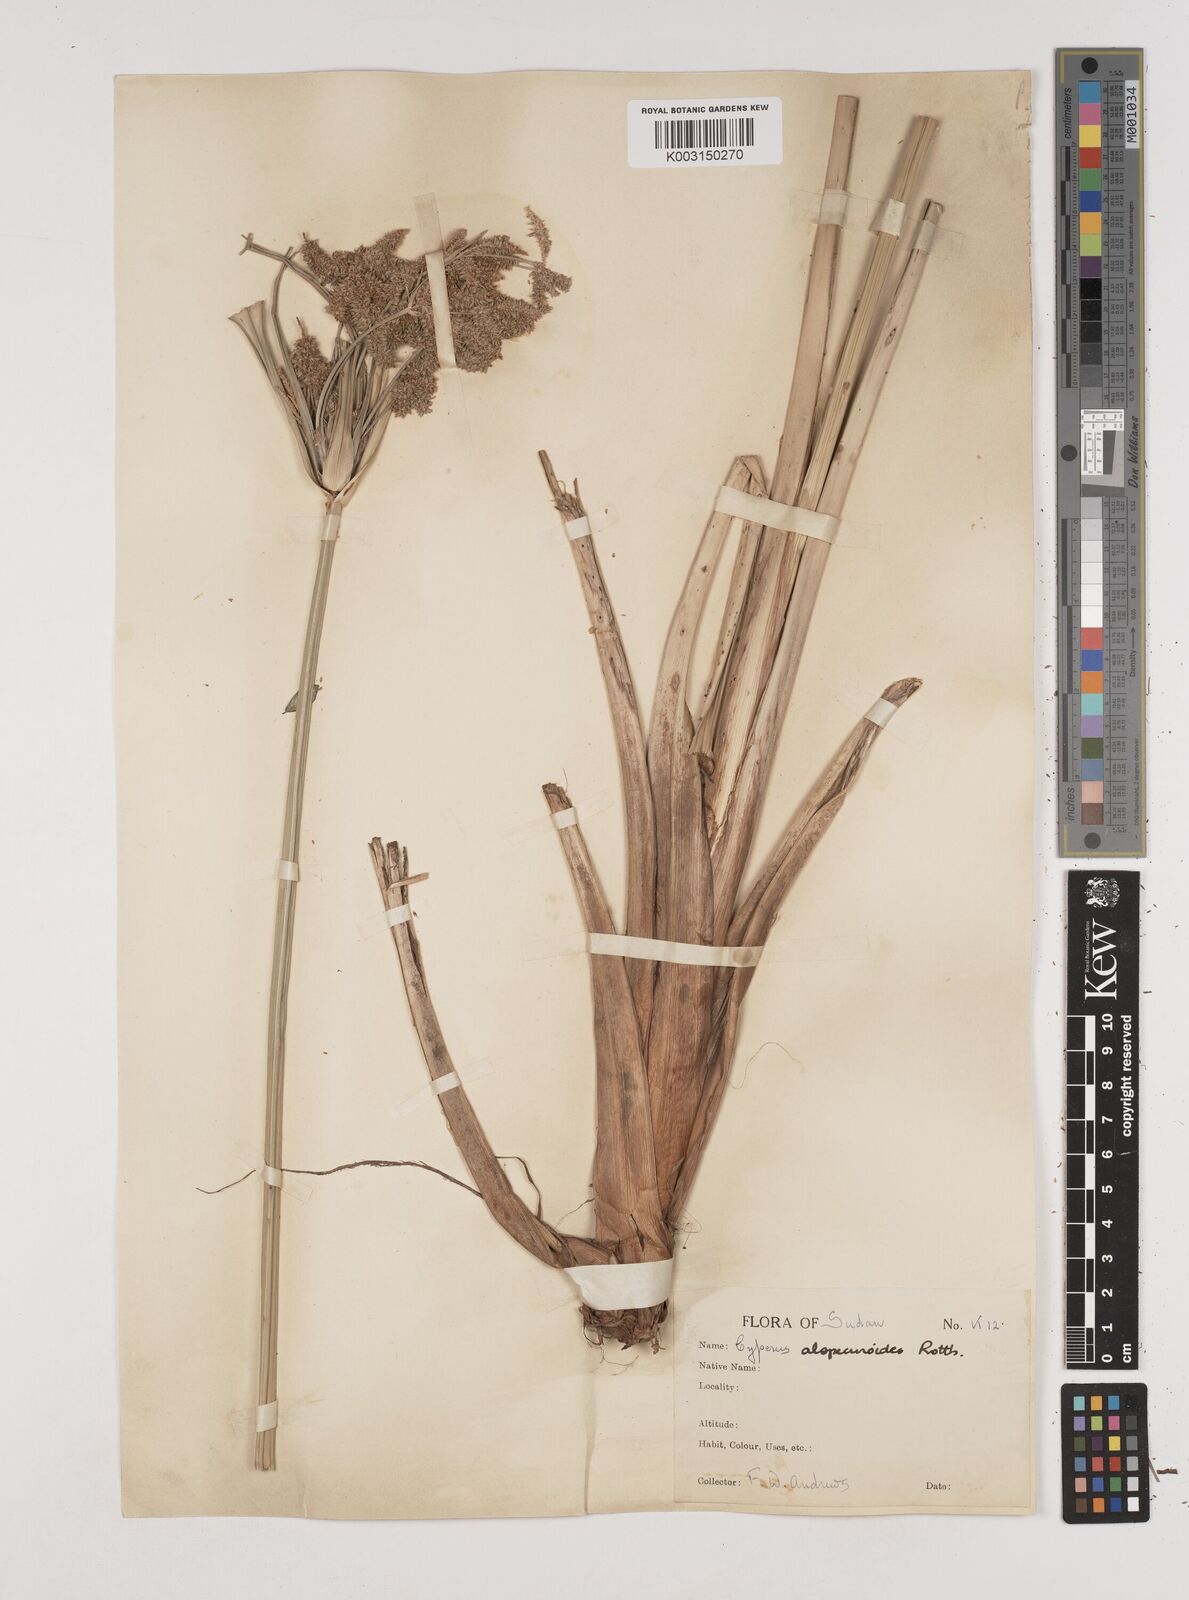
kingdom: Plantae
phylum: Tracheophyta
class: Liliopsida
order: Poales
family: Cyperaceae
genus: Cyperus
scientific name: Cyperus alopecuroides
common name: Foxtail flatsedge
